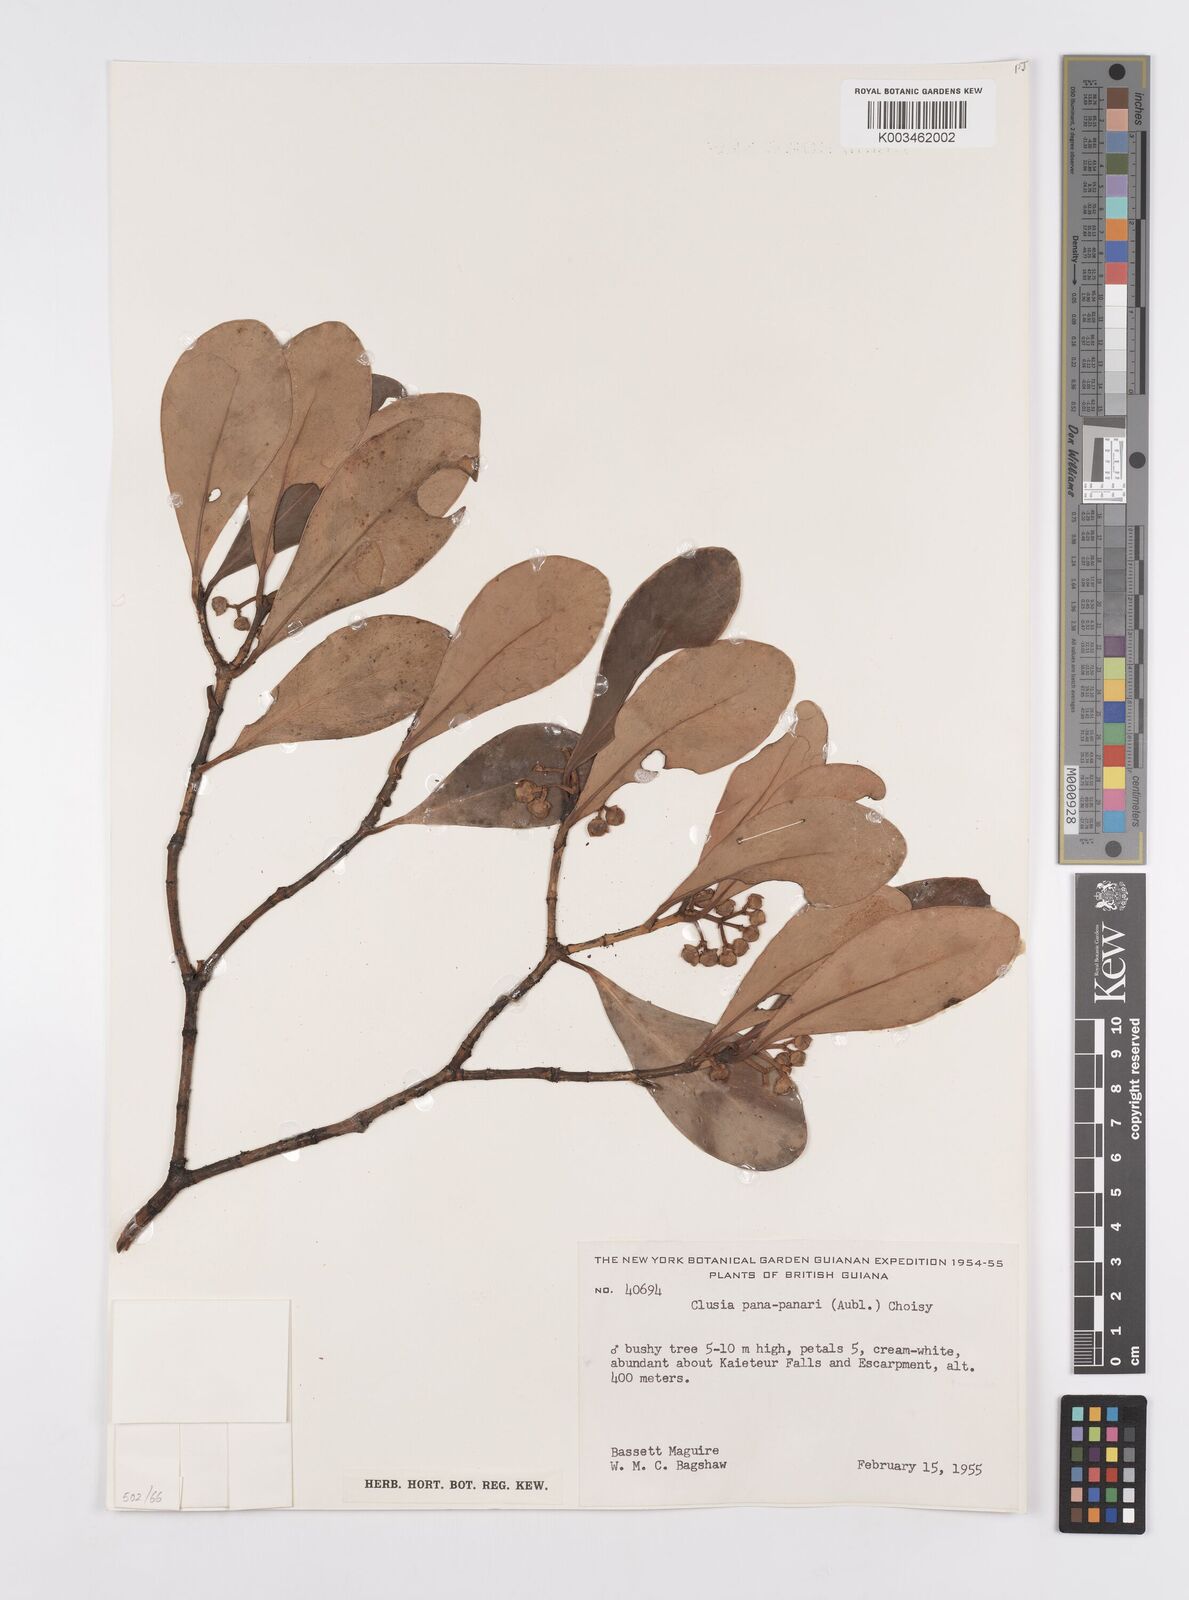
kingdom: Plantae
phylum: Tracheophyta
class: Magnoliopsida
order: Malpighiales
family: Clusiaceae
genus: Clusia
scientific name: Clusia panapanari
